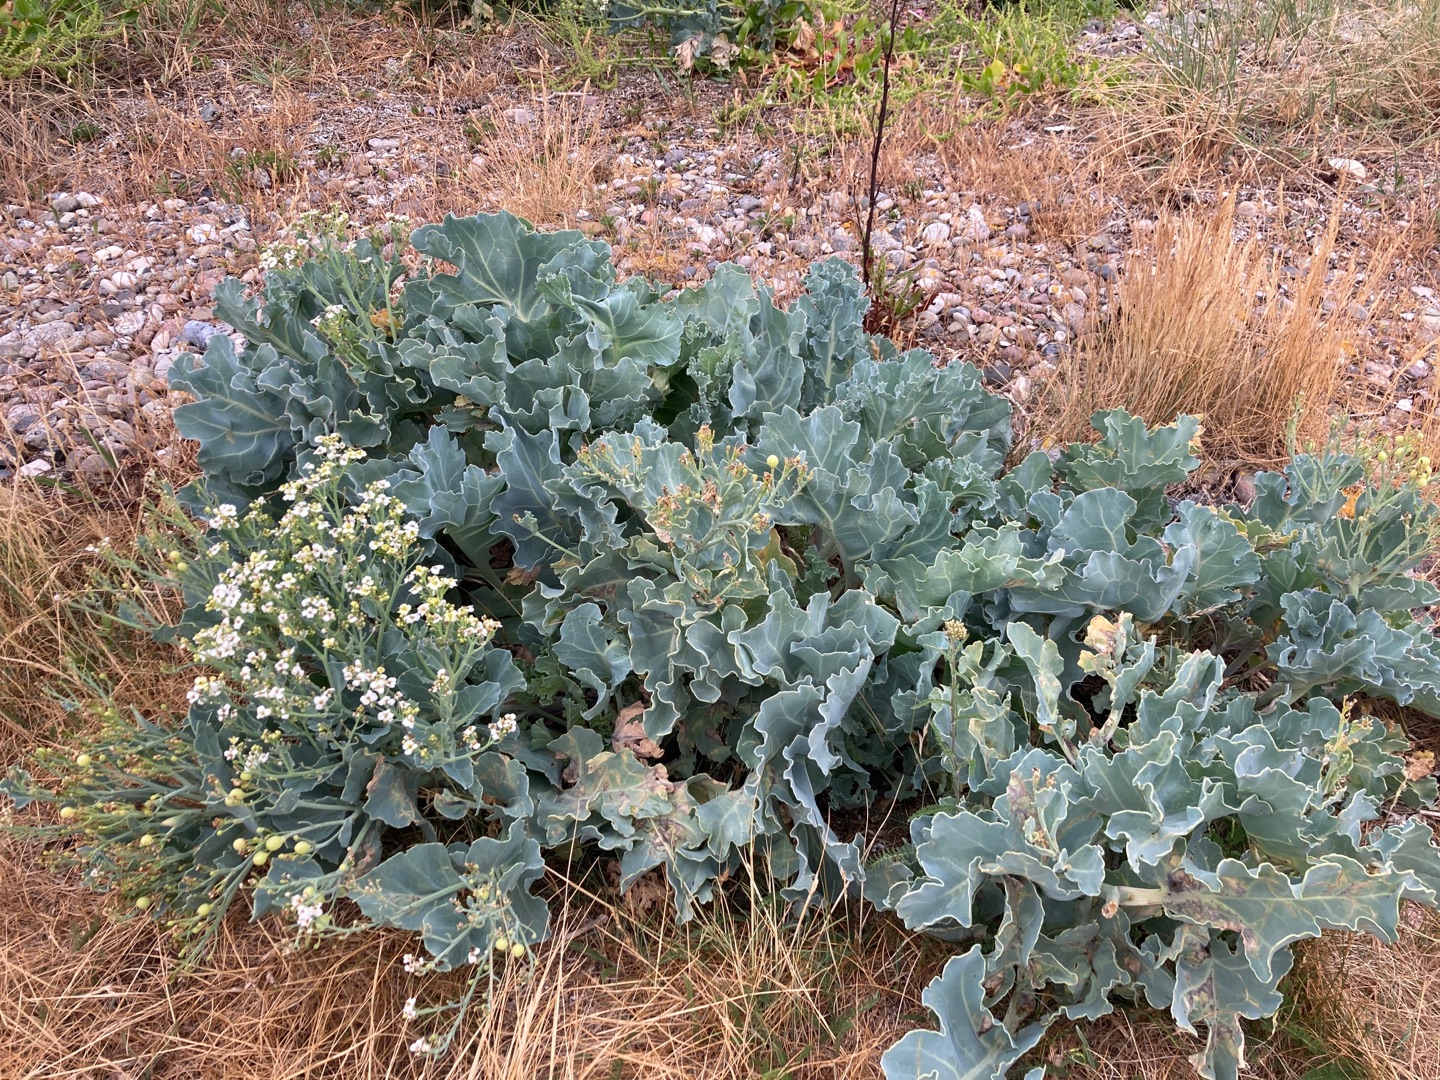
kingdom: Plantae
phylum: Tracheophyta
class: Magnoliopsida
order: Brassicales
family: Brassicaceae
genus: Crambe
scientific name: Crambe maritima
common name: Strandkål
